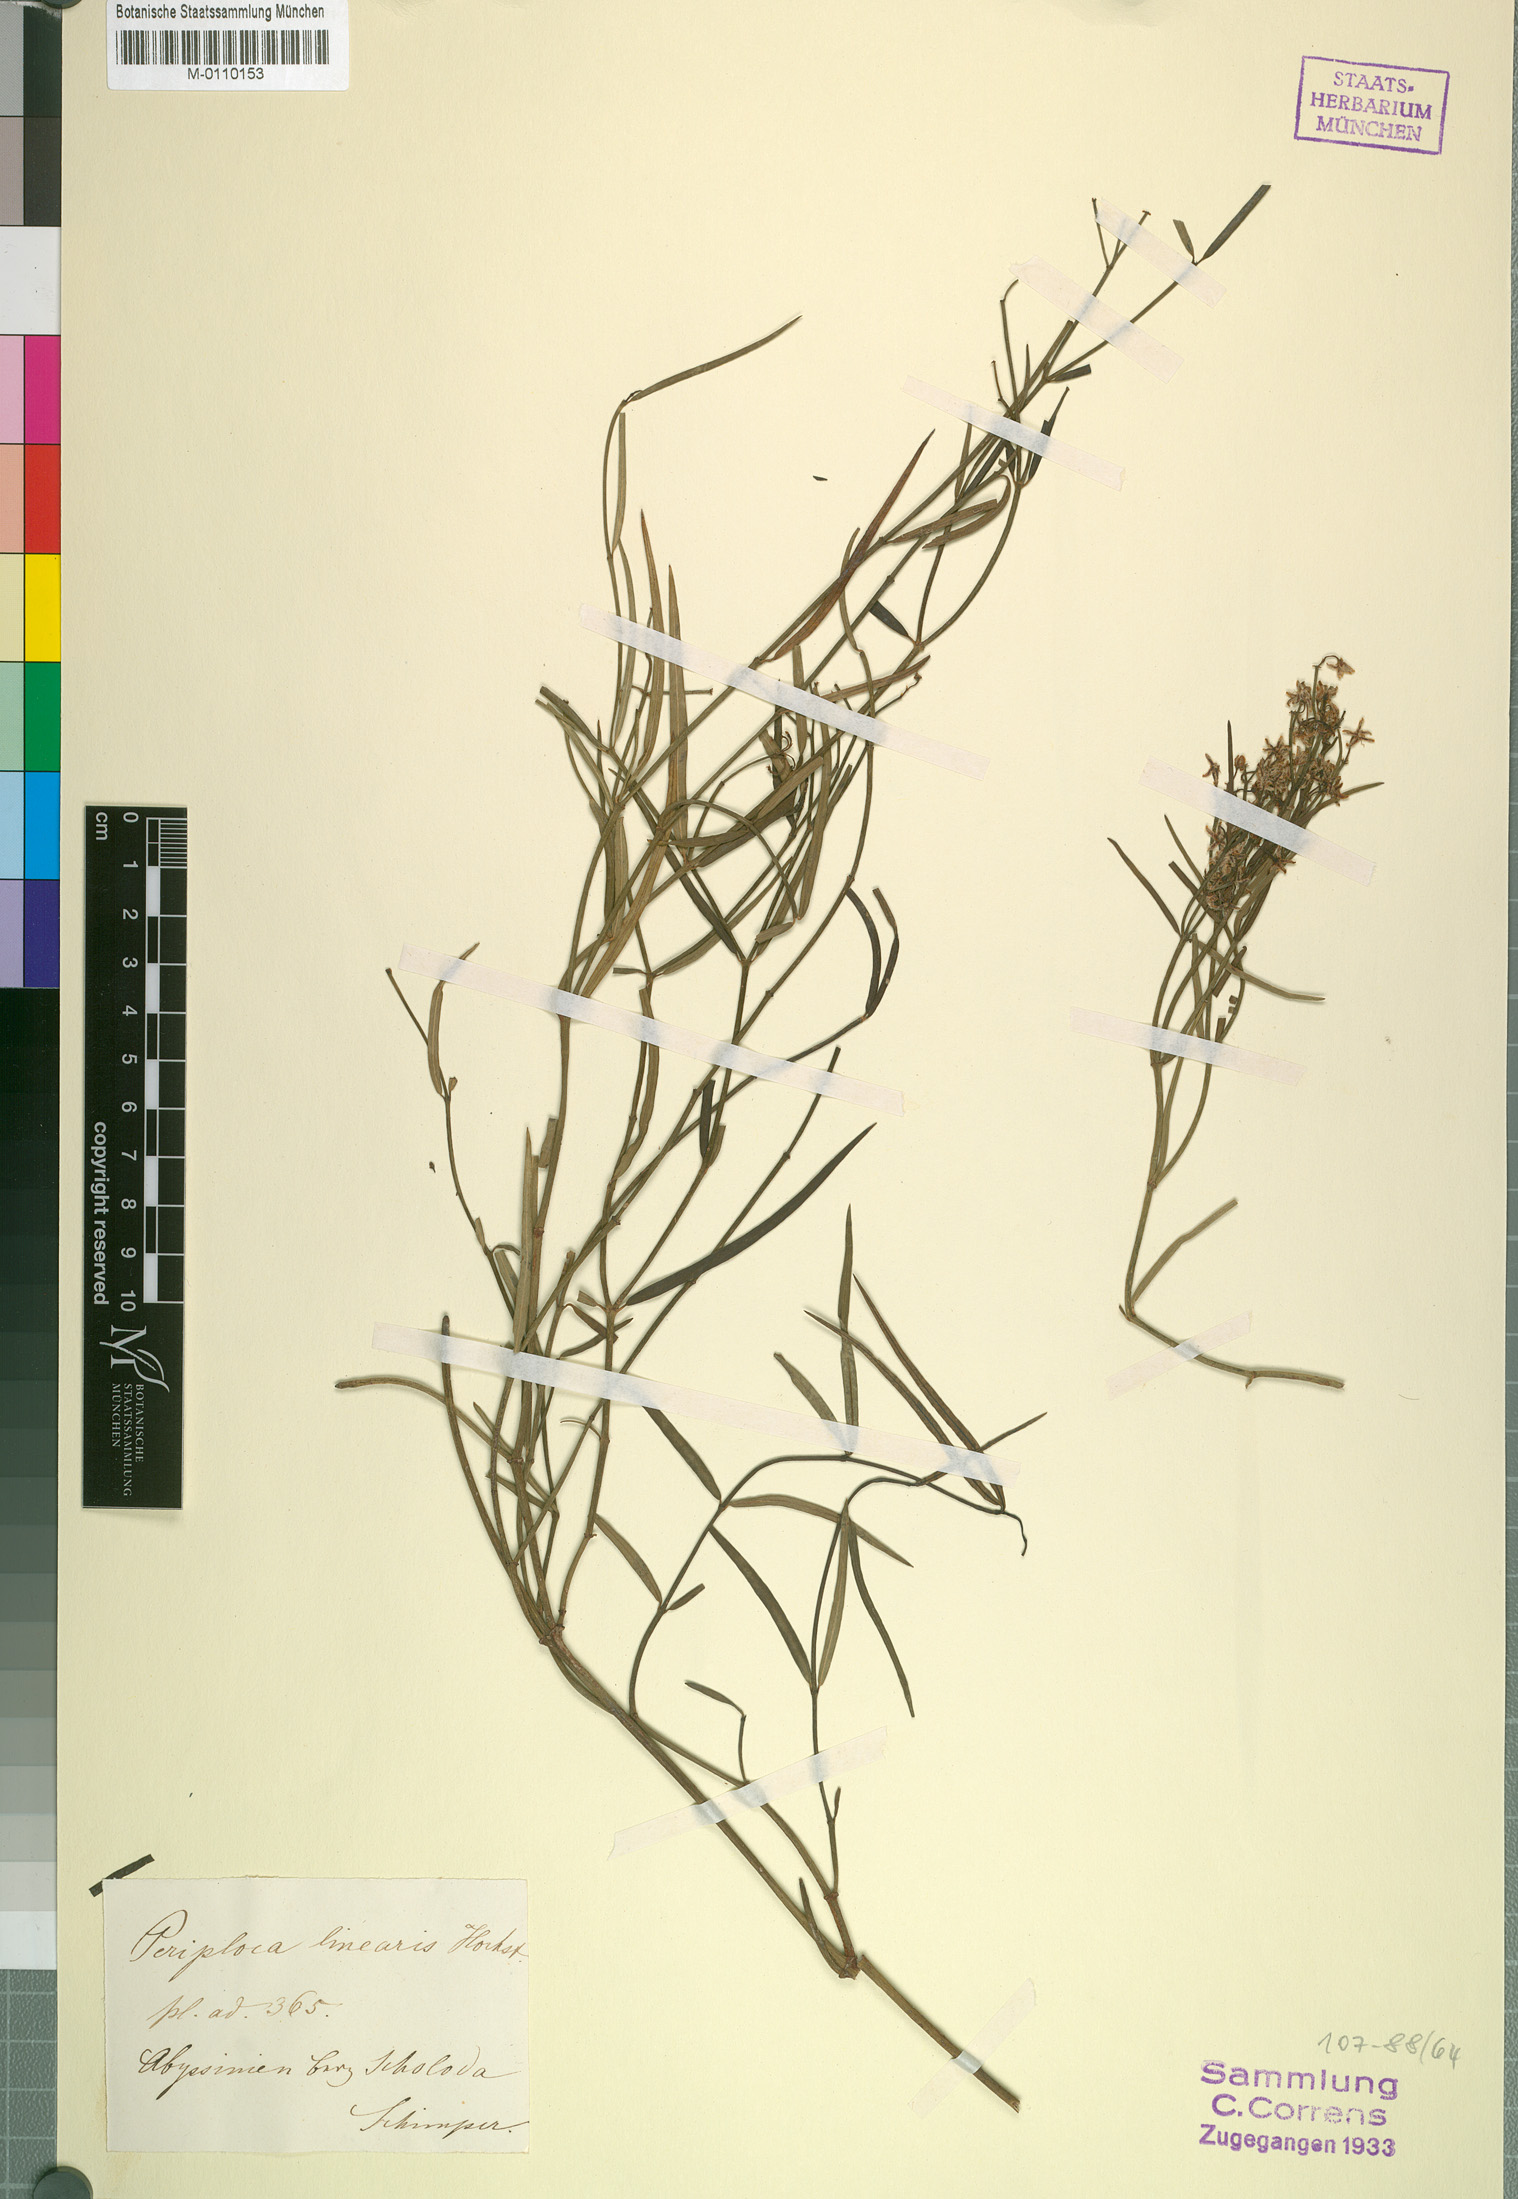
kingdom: Plantae
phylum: Tracheophyta
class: Magnoliopsida
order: Gentianales
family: Apocynaceae
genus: Periploca
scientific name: Periploca linearifolia
